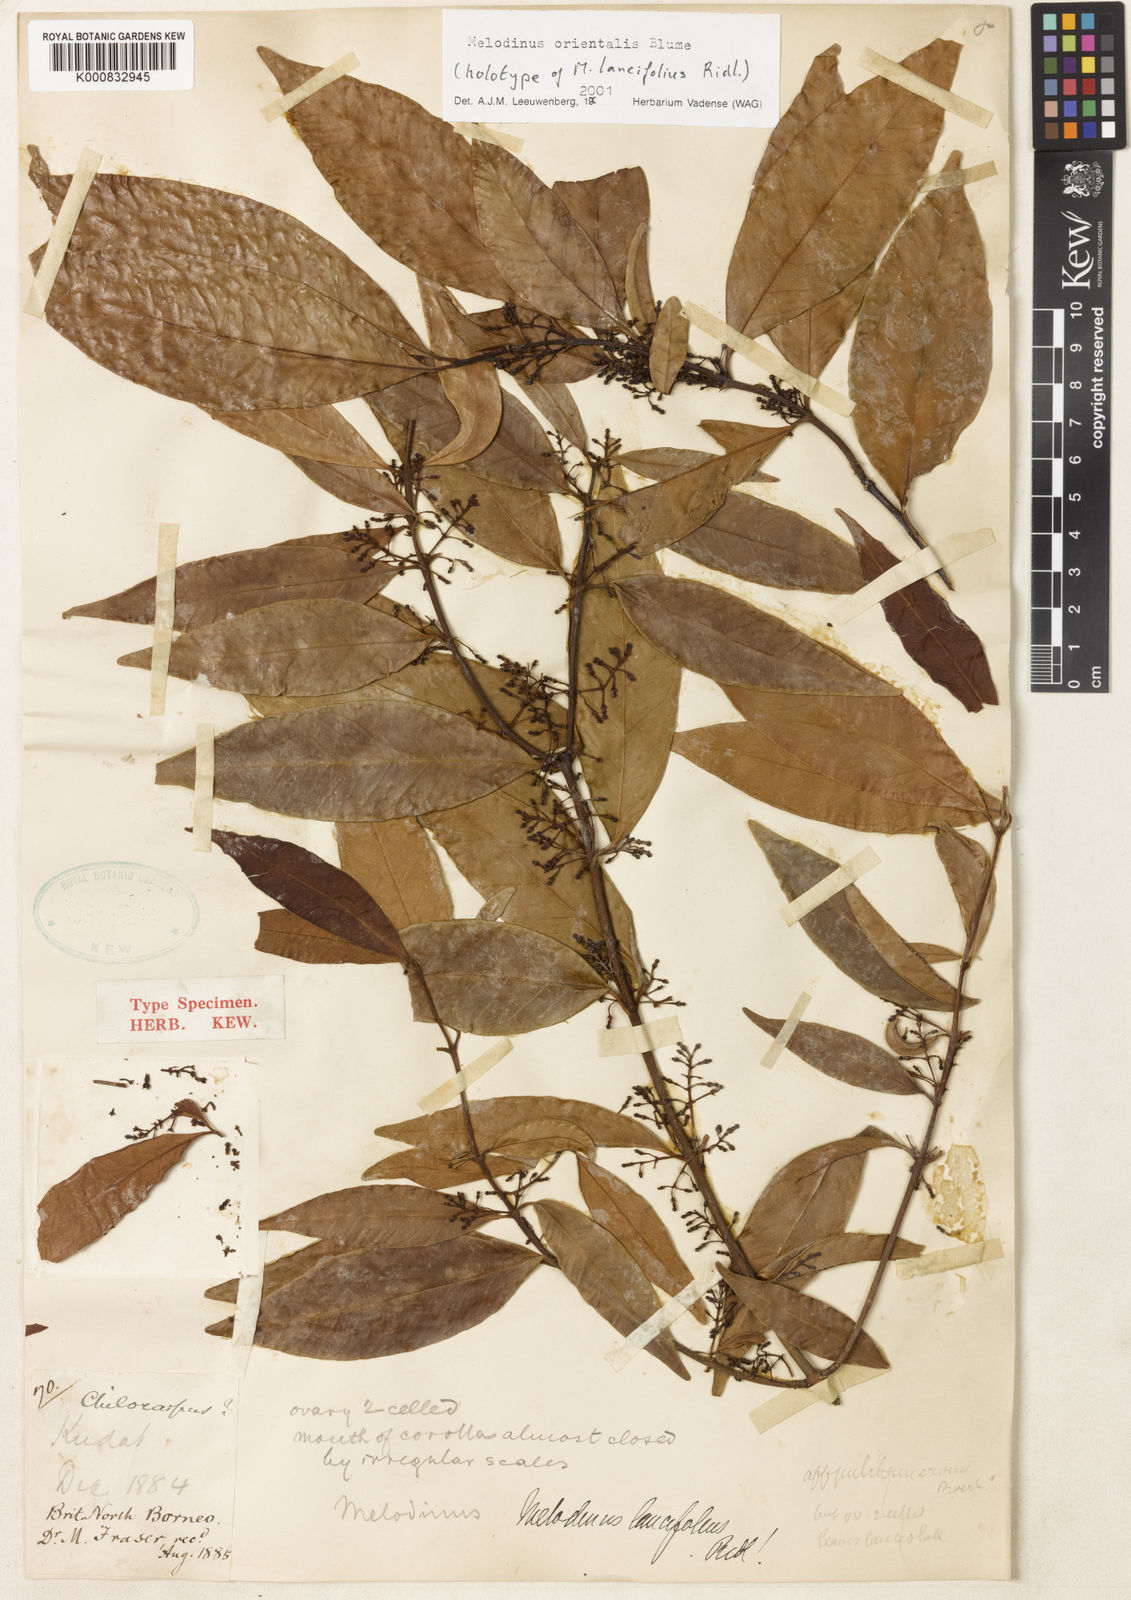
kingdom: Plantae
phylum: Tracheophyta
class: Magnoliopsida
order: Gentianales
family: Apocynaceae
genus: Melodinus
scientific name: Melodinus orientalis
